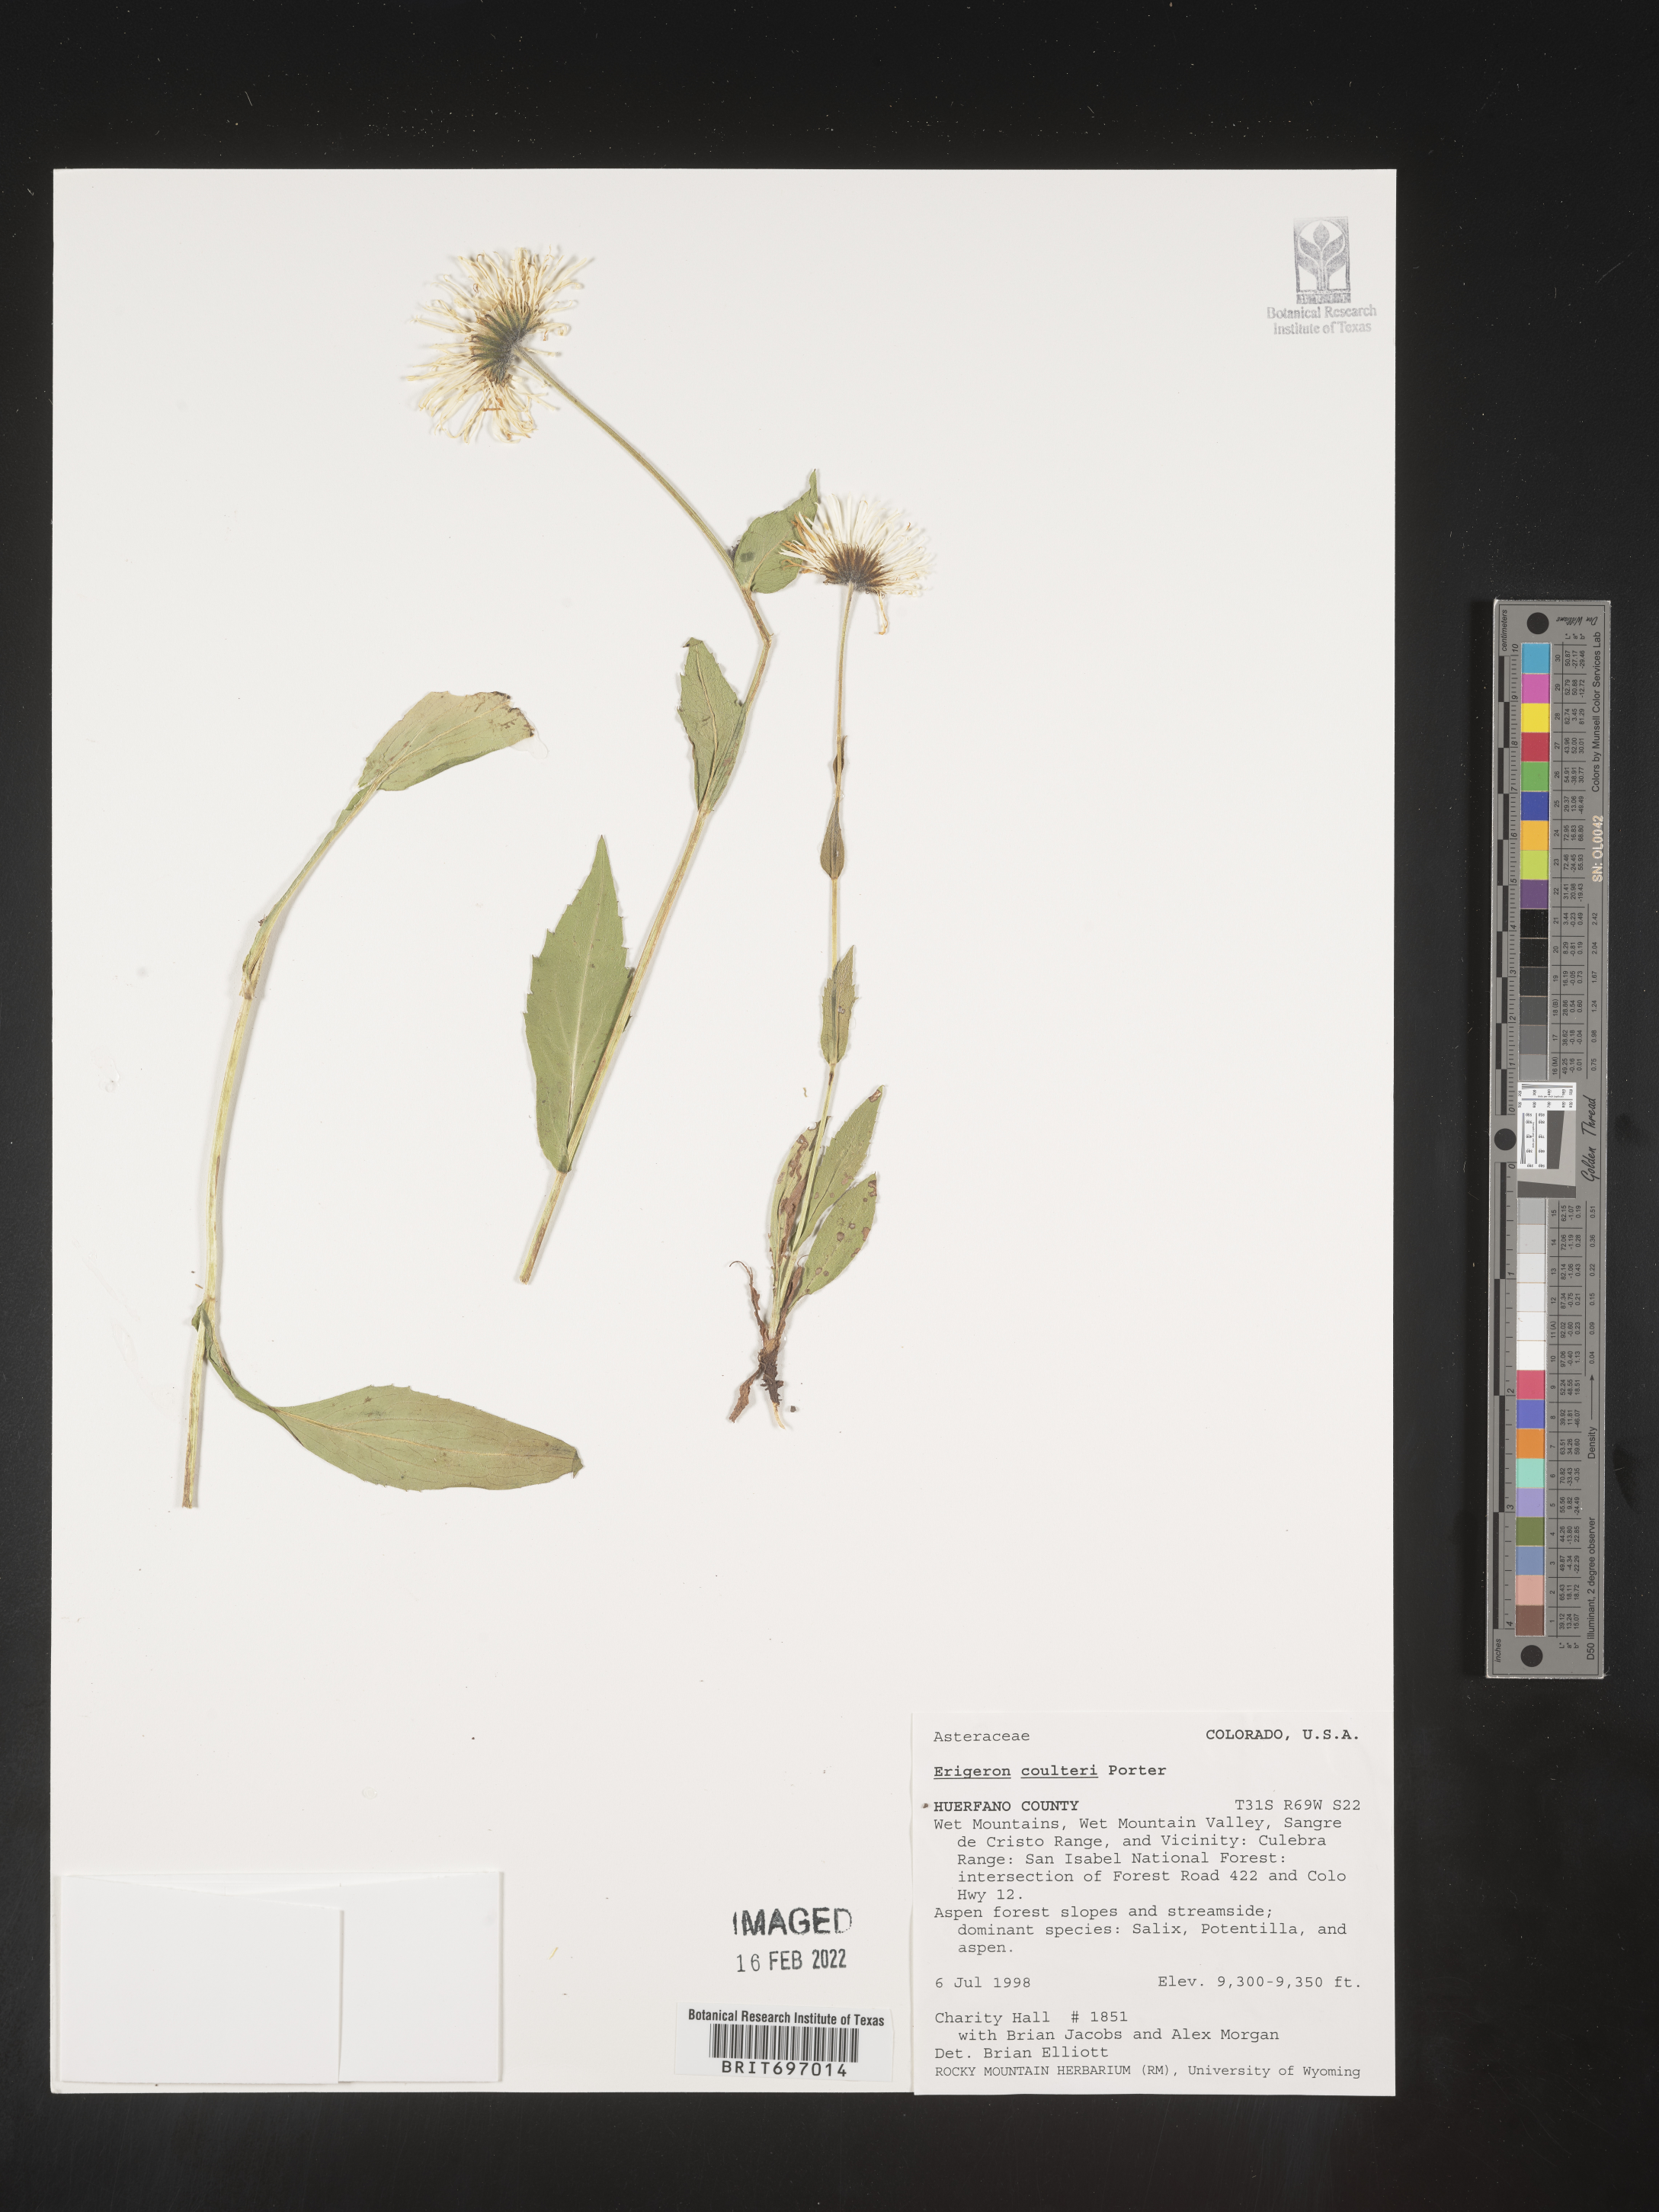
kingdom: Plantae
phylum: Tracheophyta
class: Magnoliopsida
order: Asterales
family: Asteraceae
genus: Erigeron
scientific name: Erigeron coulteri
